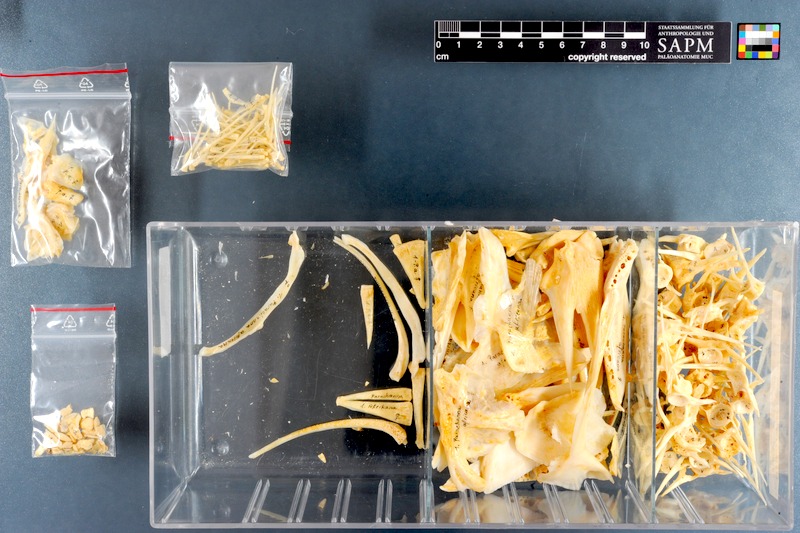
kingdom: Animalia
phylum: Chordata
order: Perciformes
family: Channidae
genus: Parachanna
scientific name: Parachanna africana
